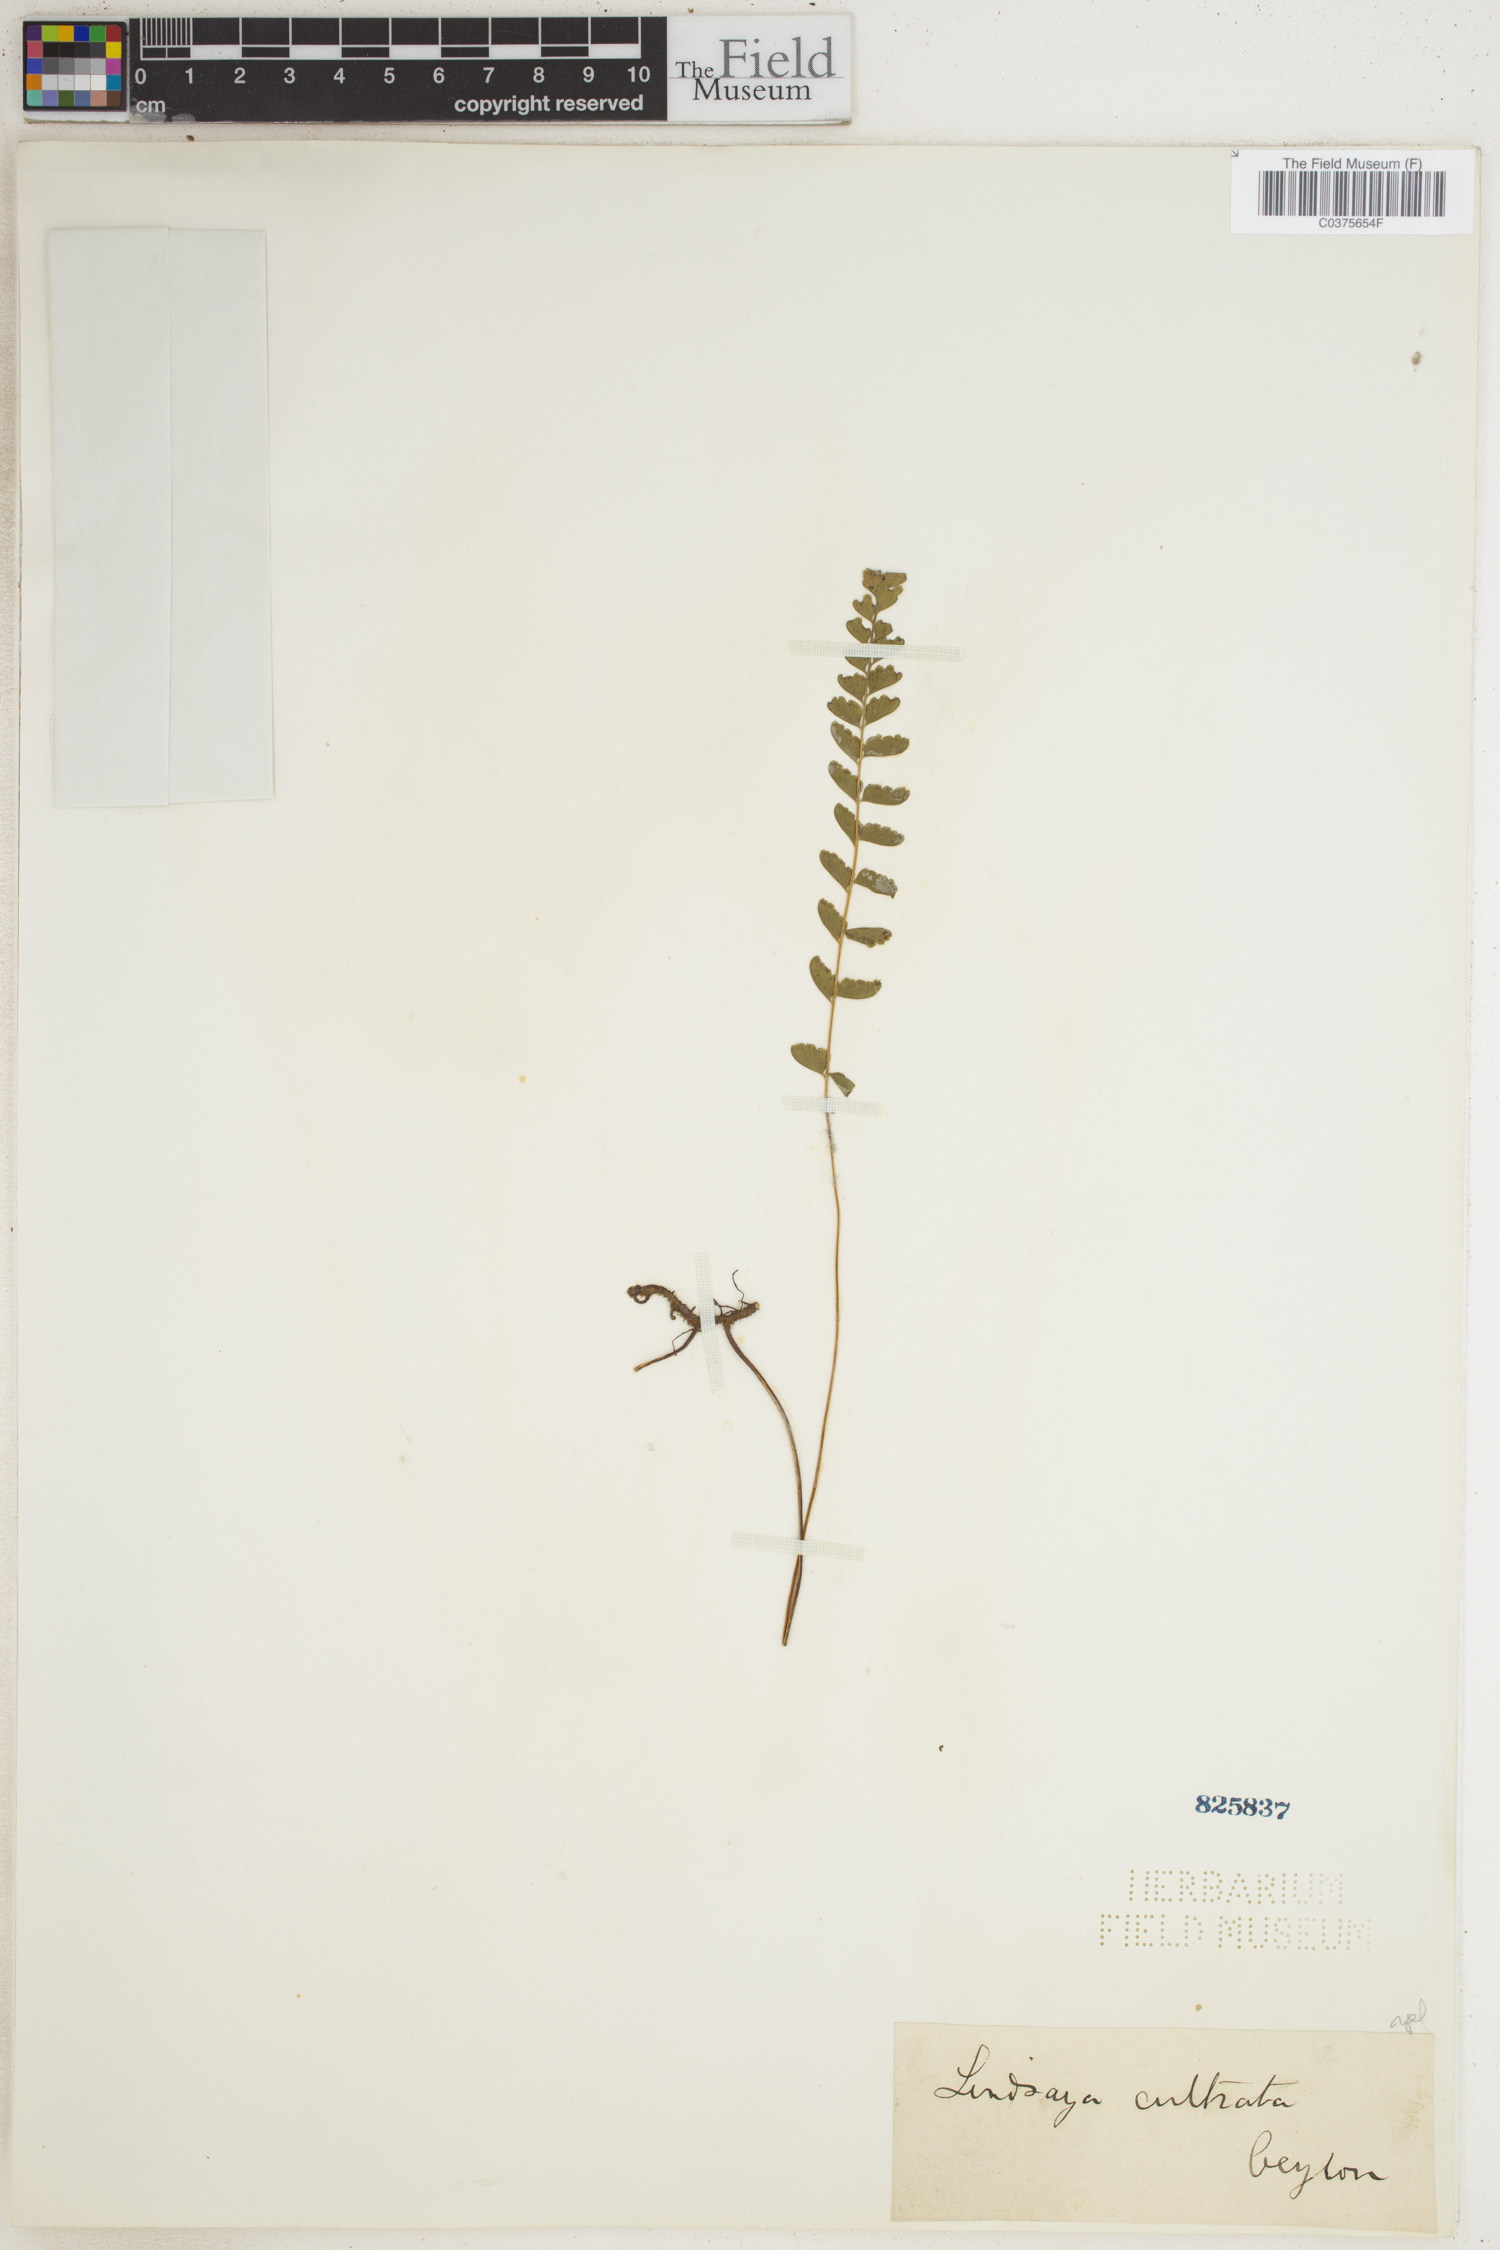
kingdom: Plantae
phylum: Tracheophyta
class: Polypodiopsida
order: Polypodiales
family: Lindsaeaceae
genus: Lindsaea
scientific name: Lindsaea cultrata
